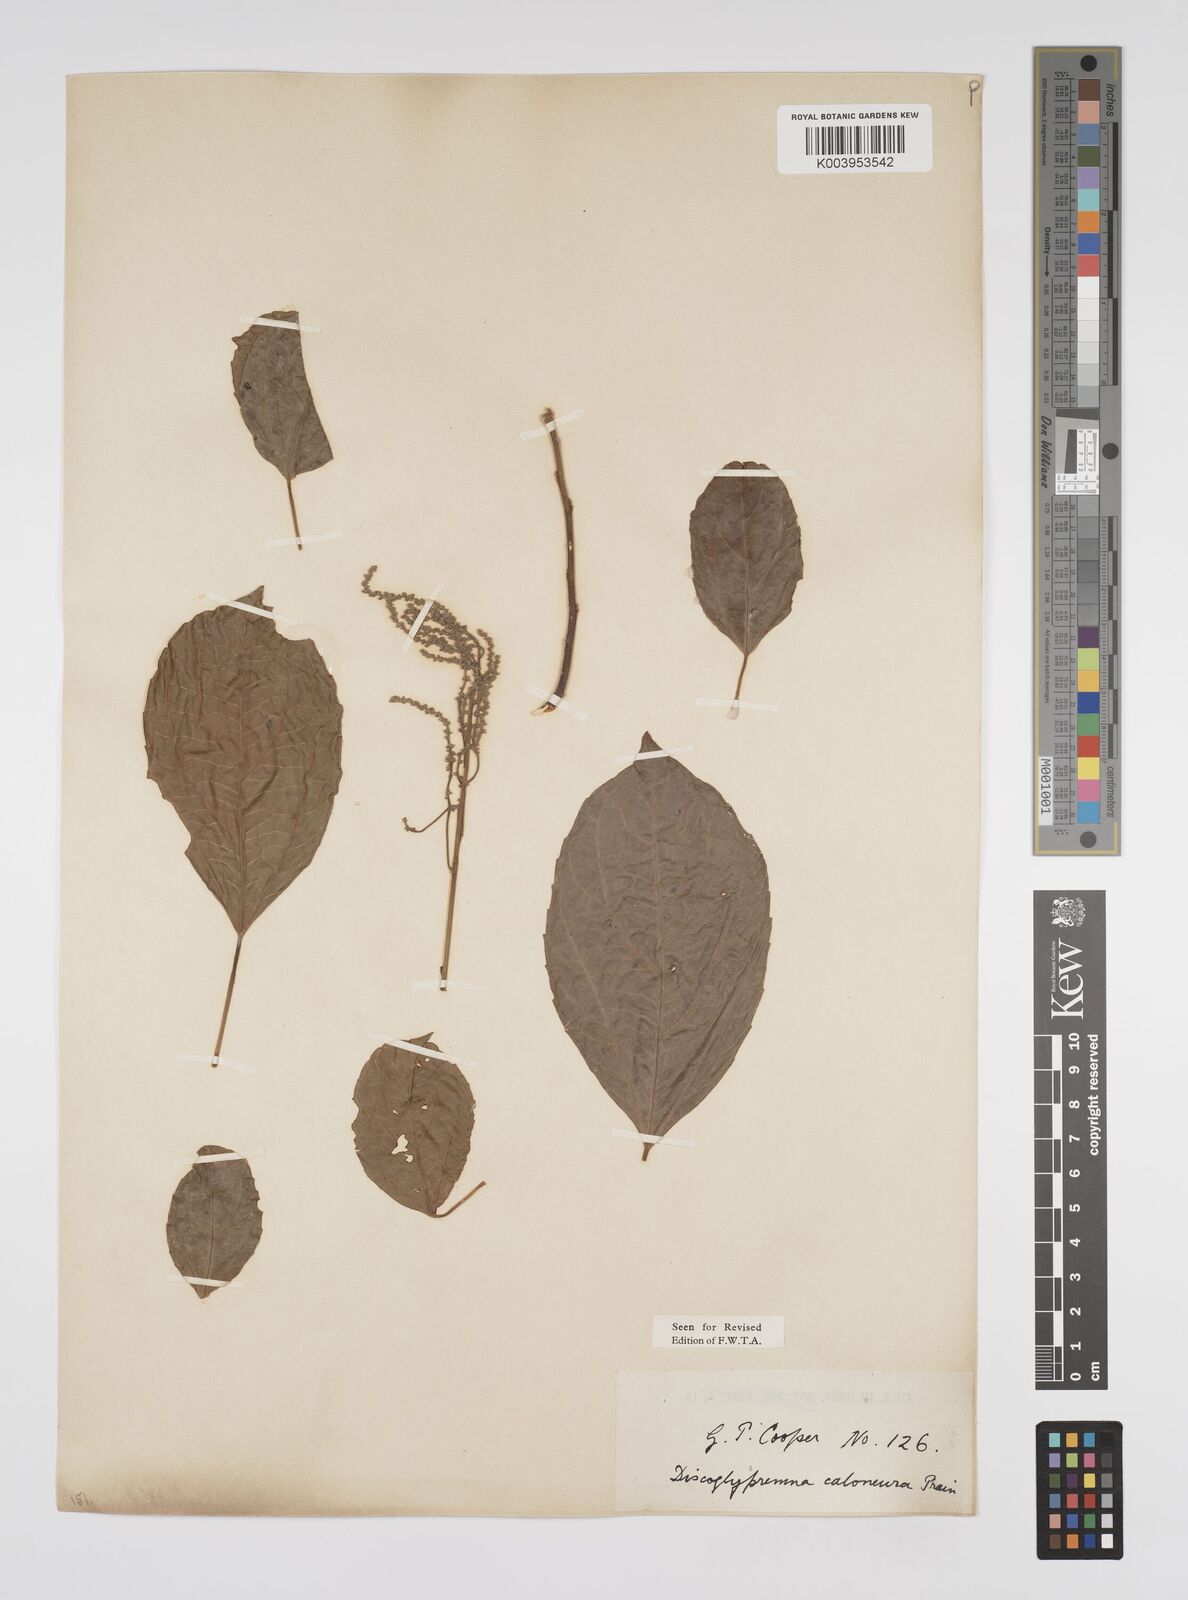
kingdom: Plantae
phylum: Tracheophyta
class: Magnoliopsida
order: Malpighiales
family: Euphorbiaceae
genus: Discoglypremna
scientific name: Discoglypremna caloneura
